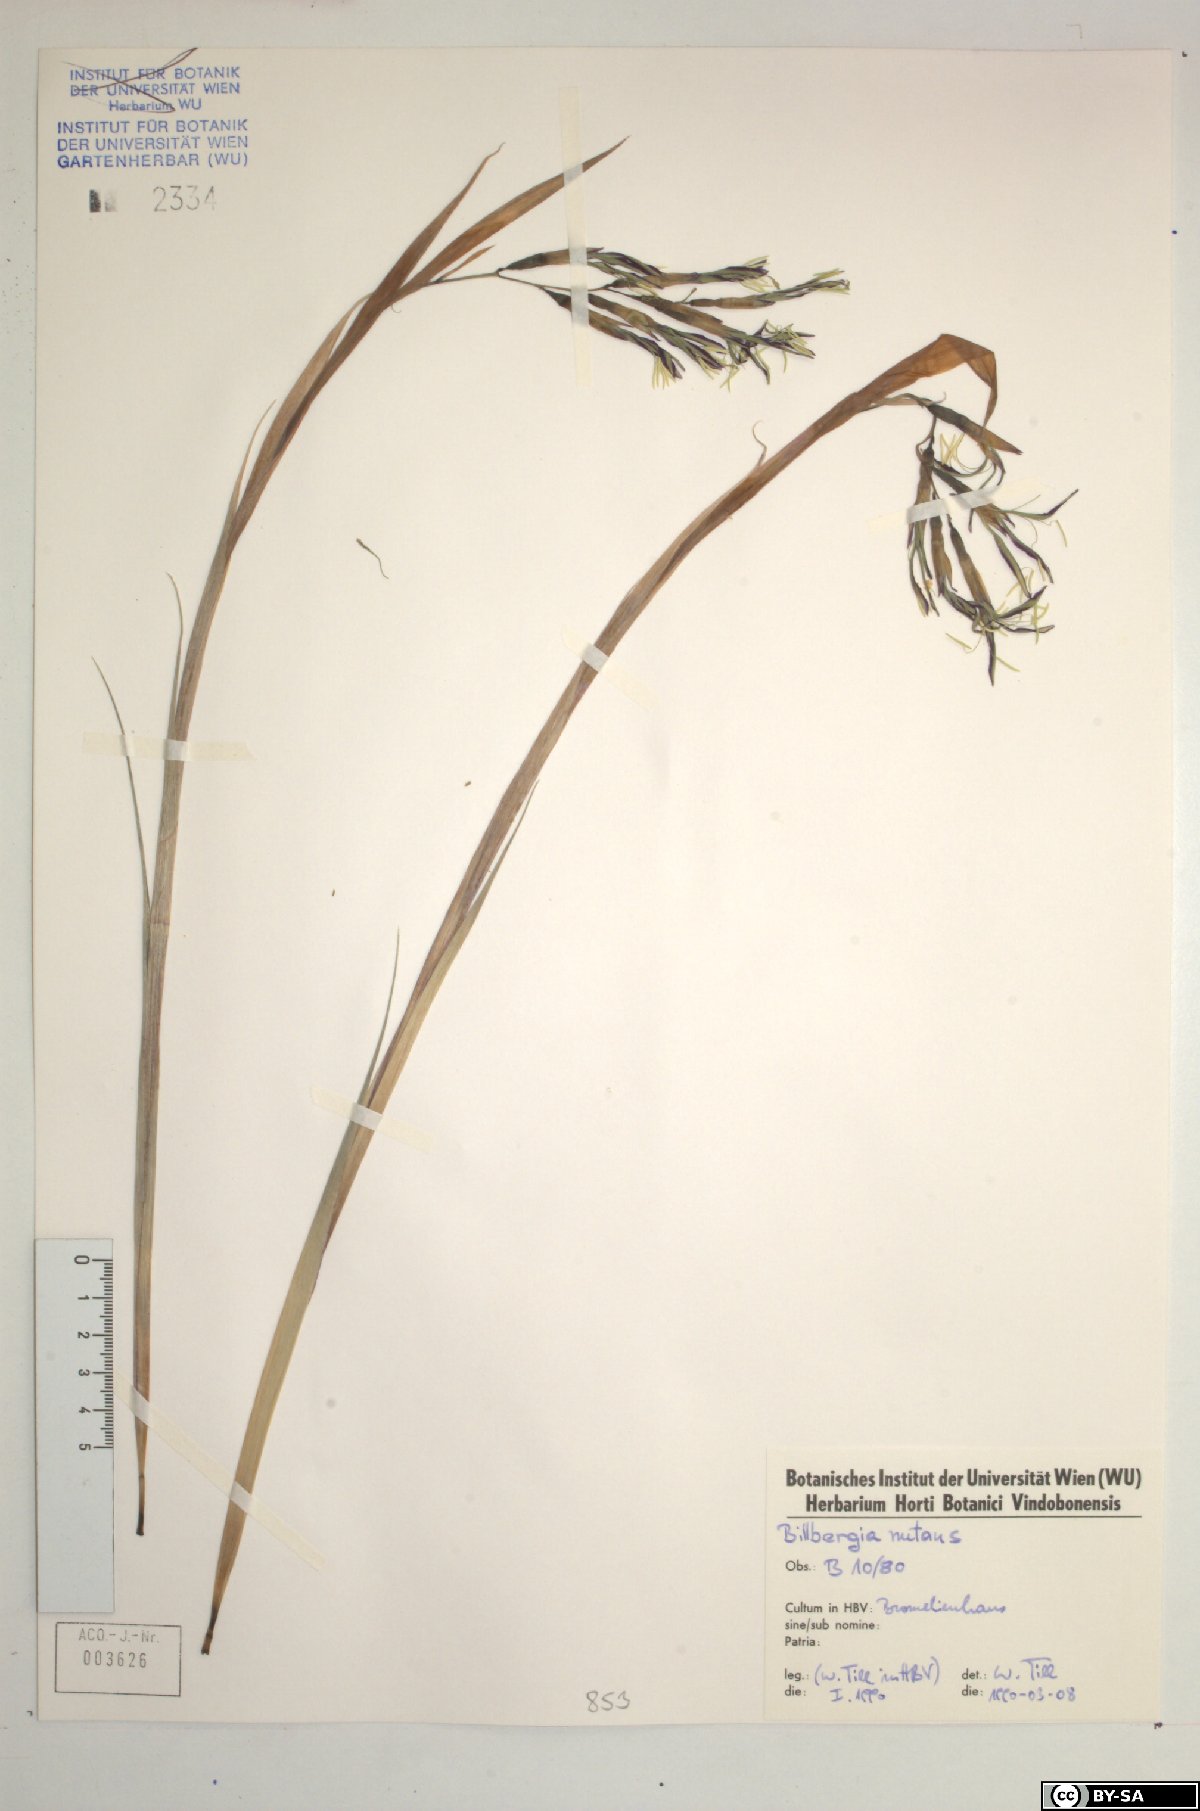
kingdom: Plantae
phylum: Tracheophyta
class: Liliopsida
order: Poales
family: Bromeliaceae
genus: Billbergia
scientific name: Billbergia nutans
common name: Friendship-plant
